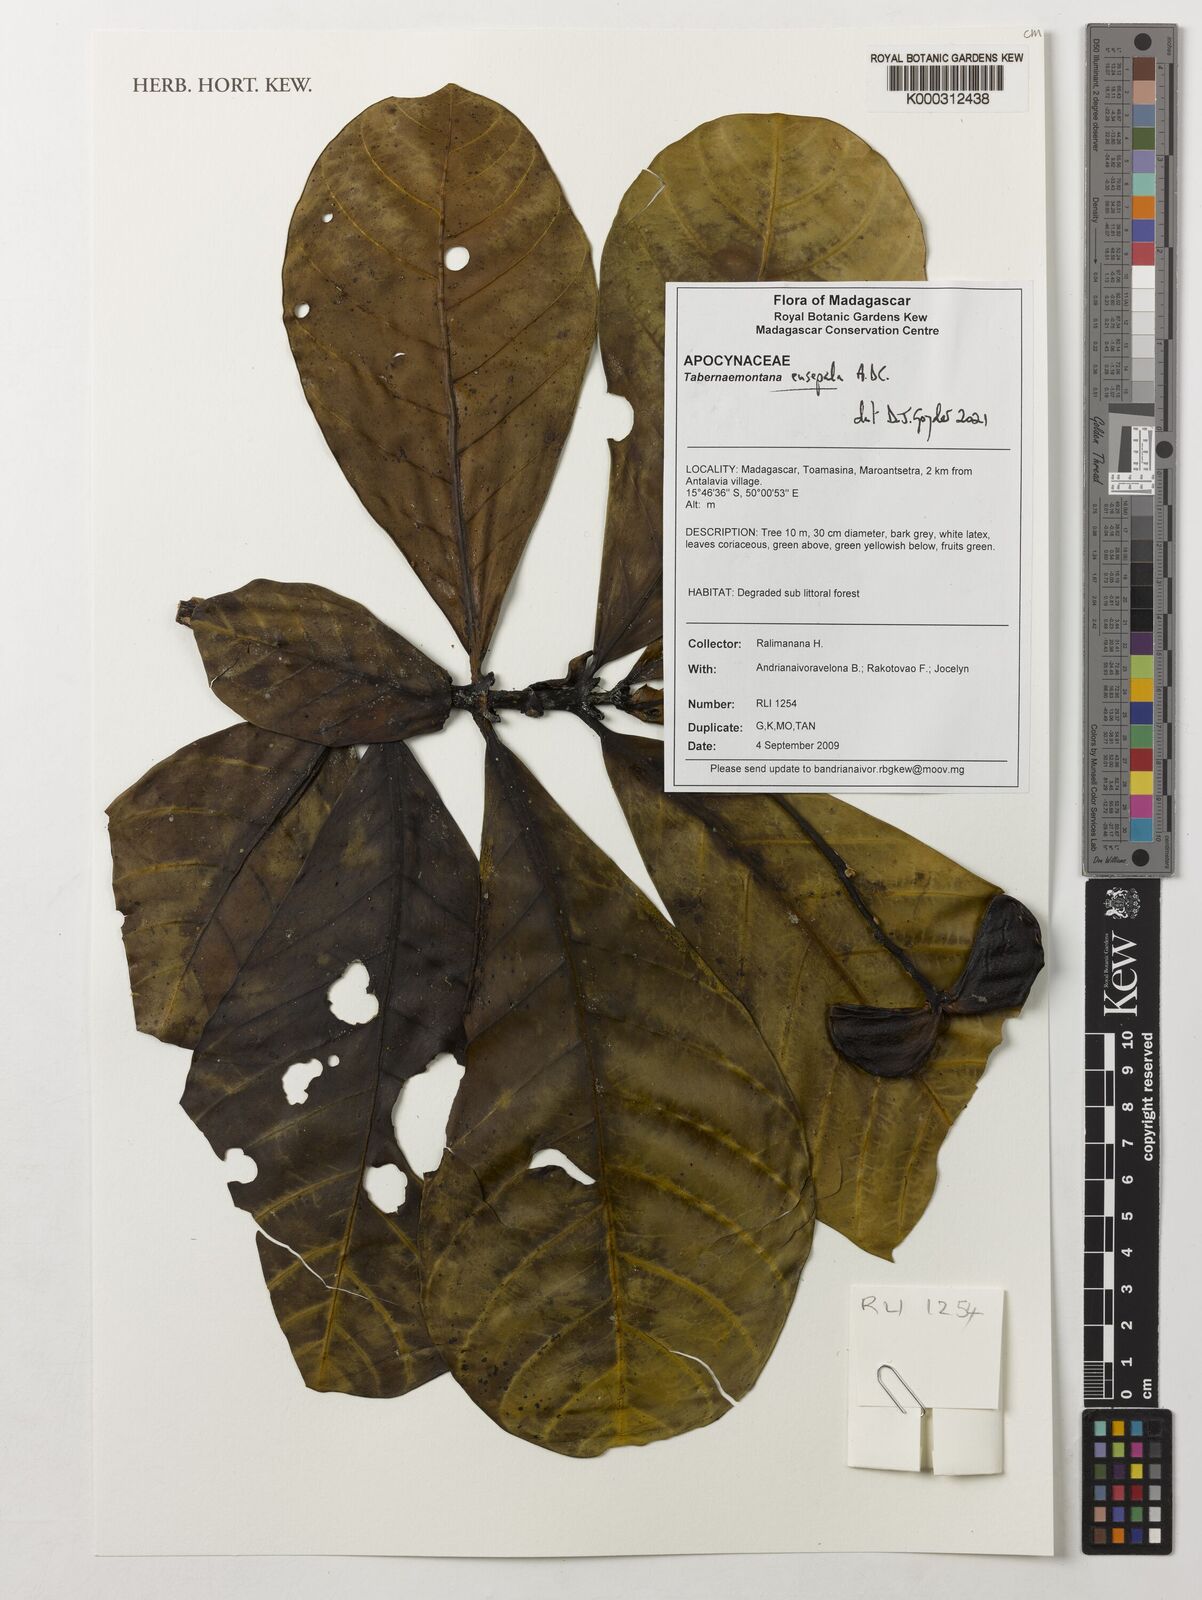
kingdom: Plantae
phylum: Tracheophyta
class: Magnoliopsida
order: Gentianales
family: Apocynaceae
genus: Tabernaemontana
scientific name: Tabernaemontana eusepala
